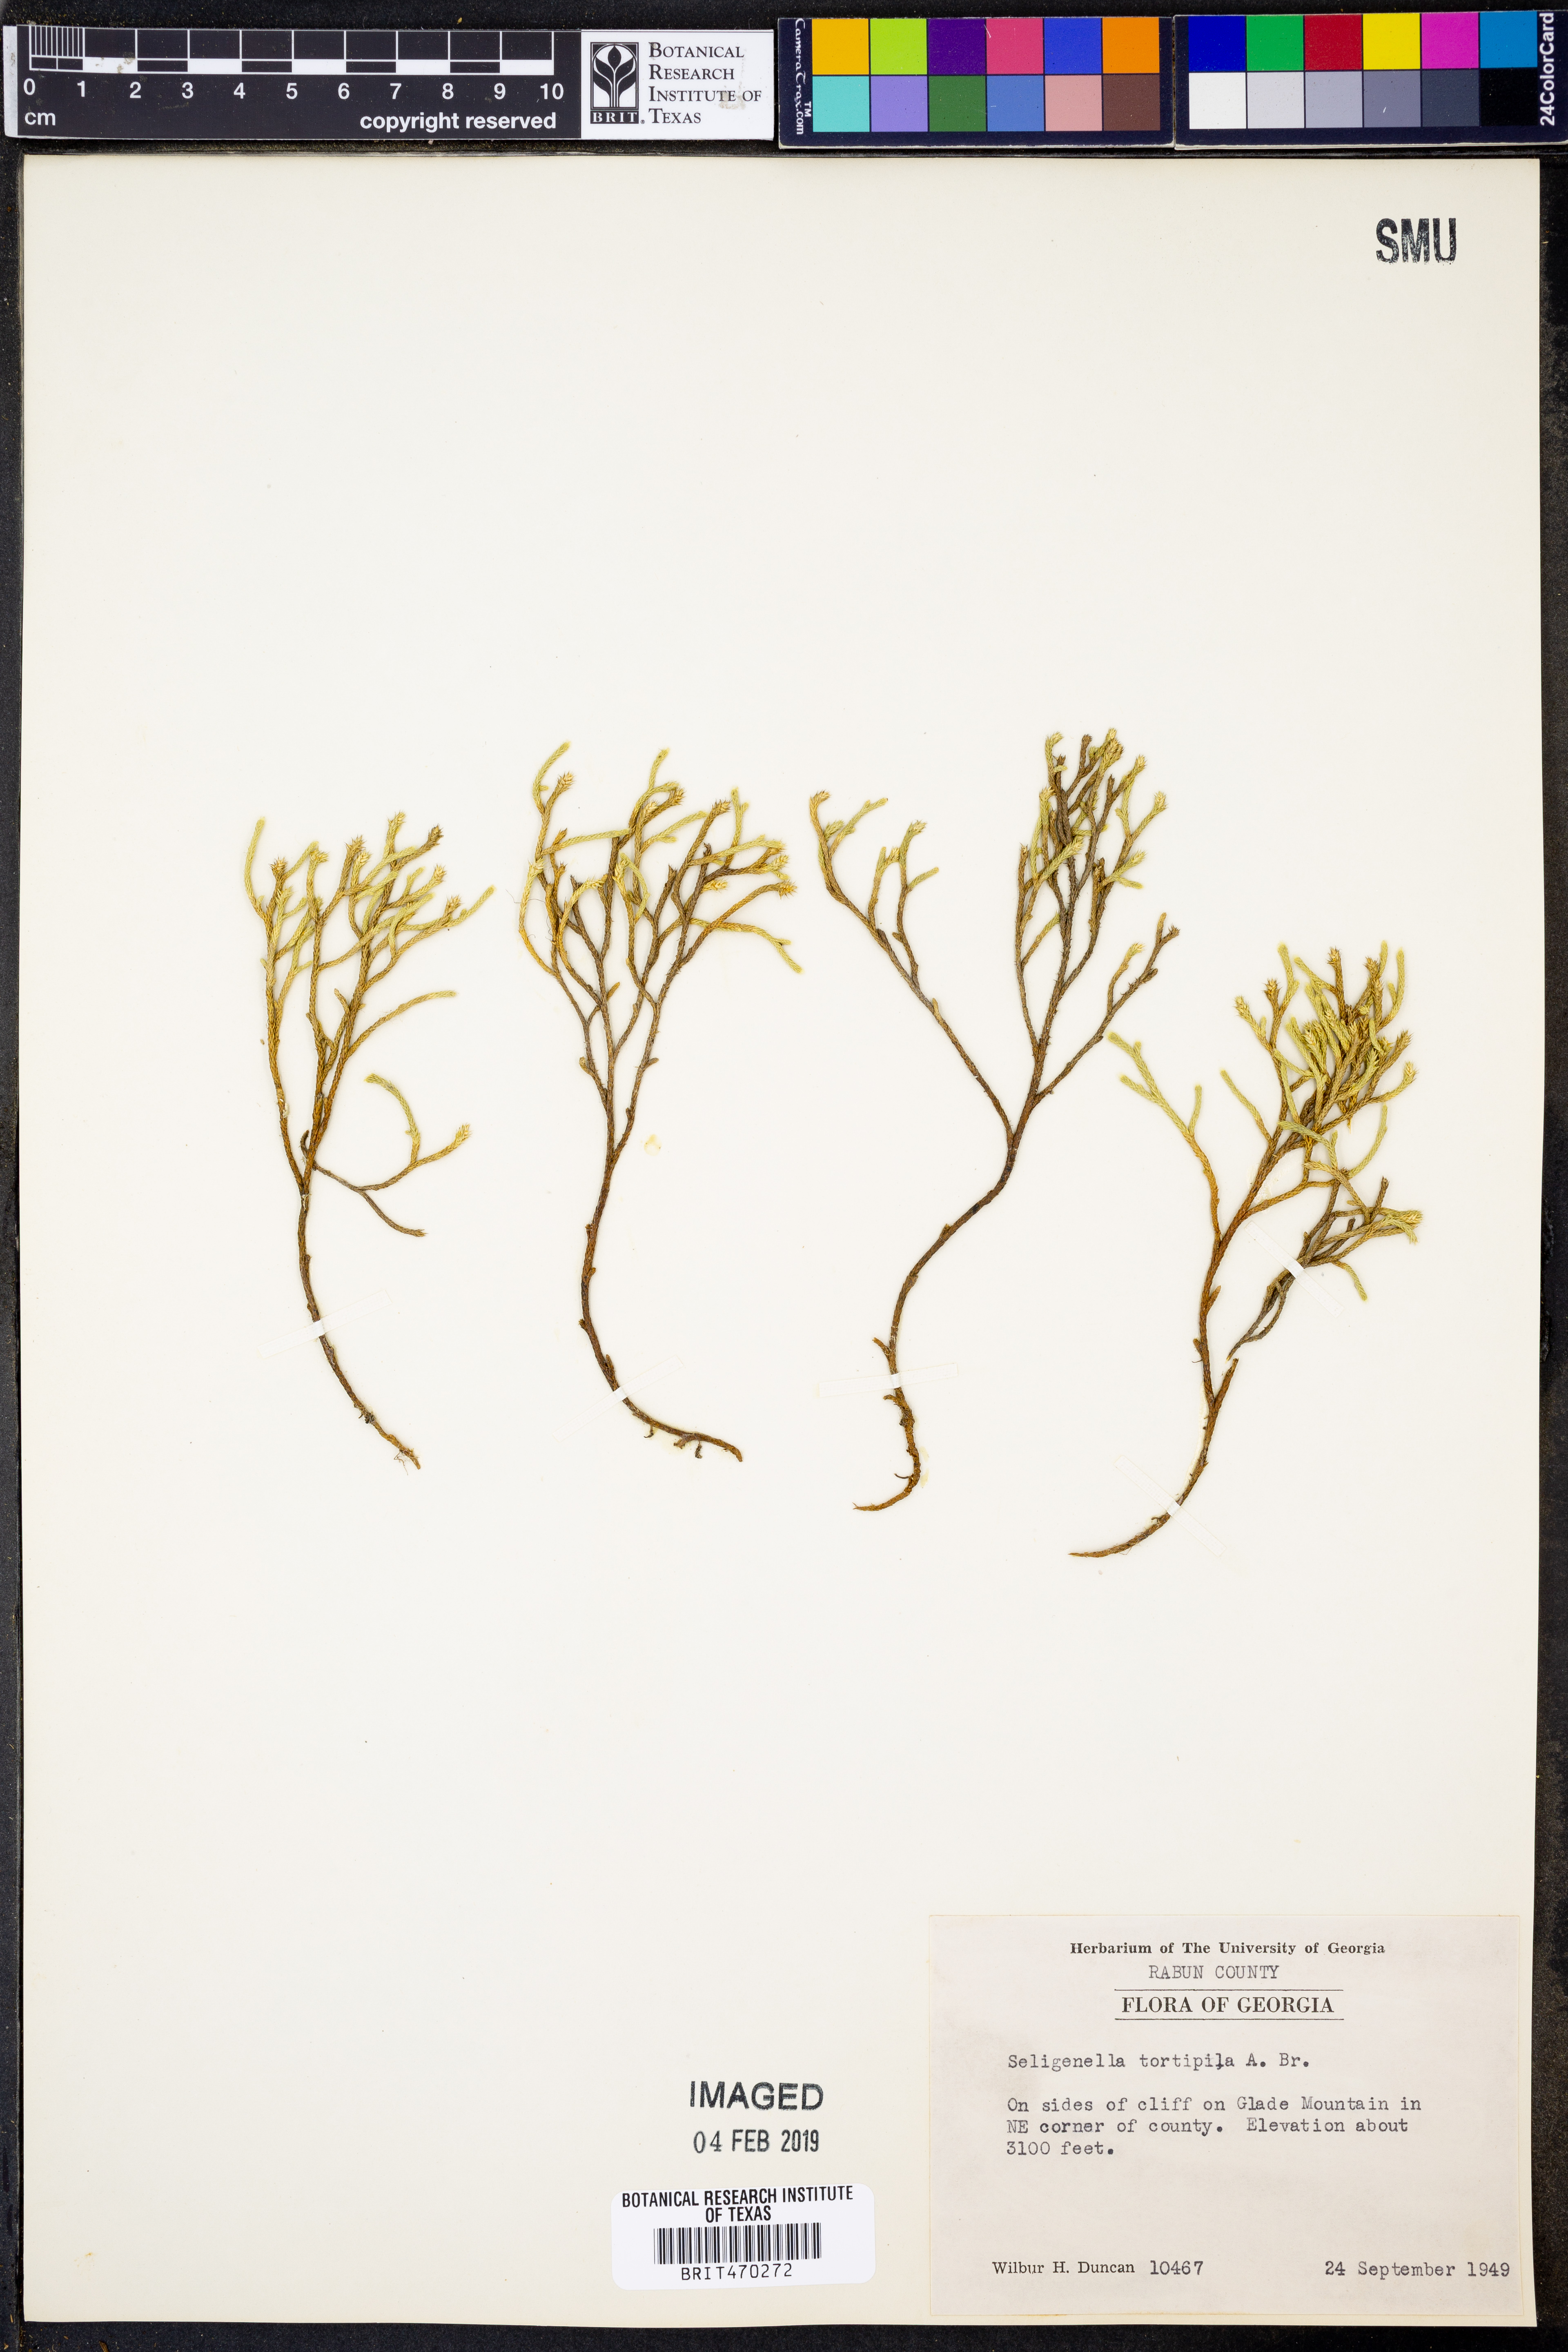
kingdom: Plantae
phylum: Tracheophyta
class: Lycopodiopsida
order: Selaginellales
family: Selaginellaceae
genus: Selaginella
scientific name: Selaginella tortipila
